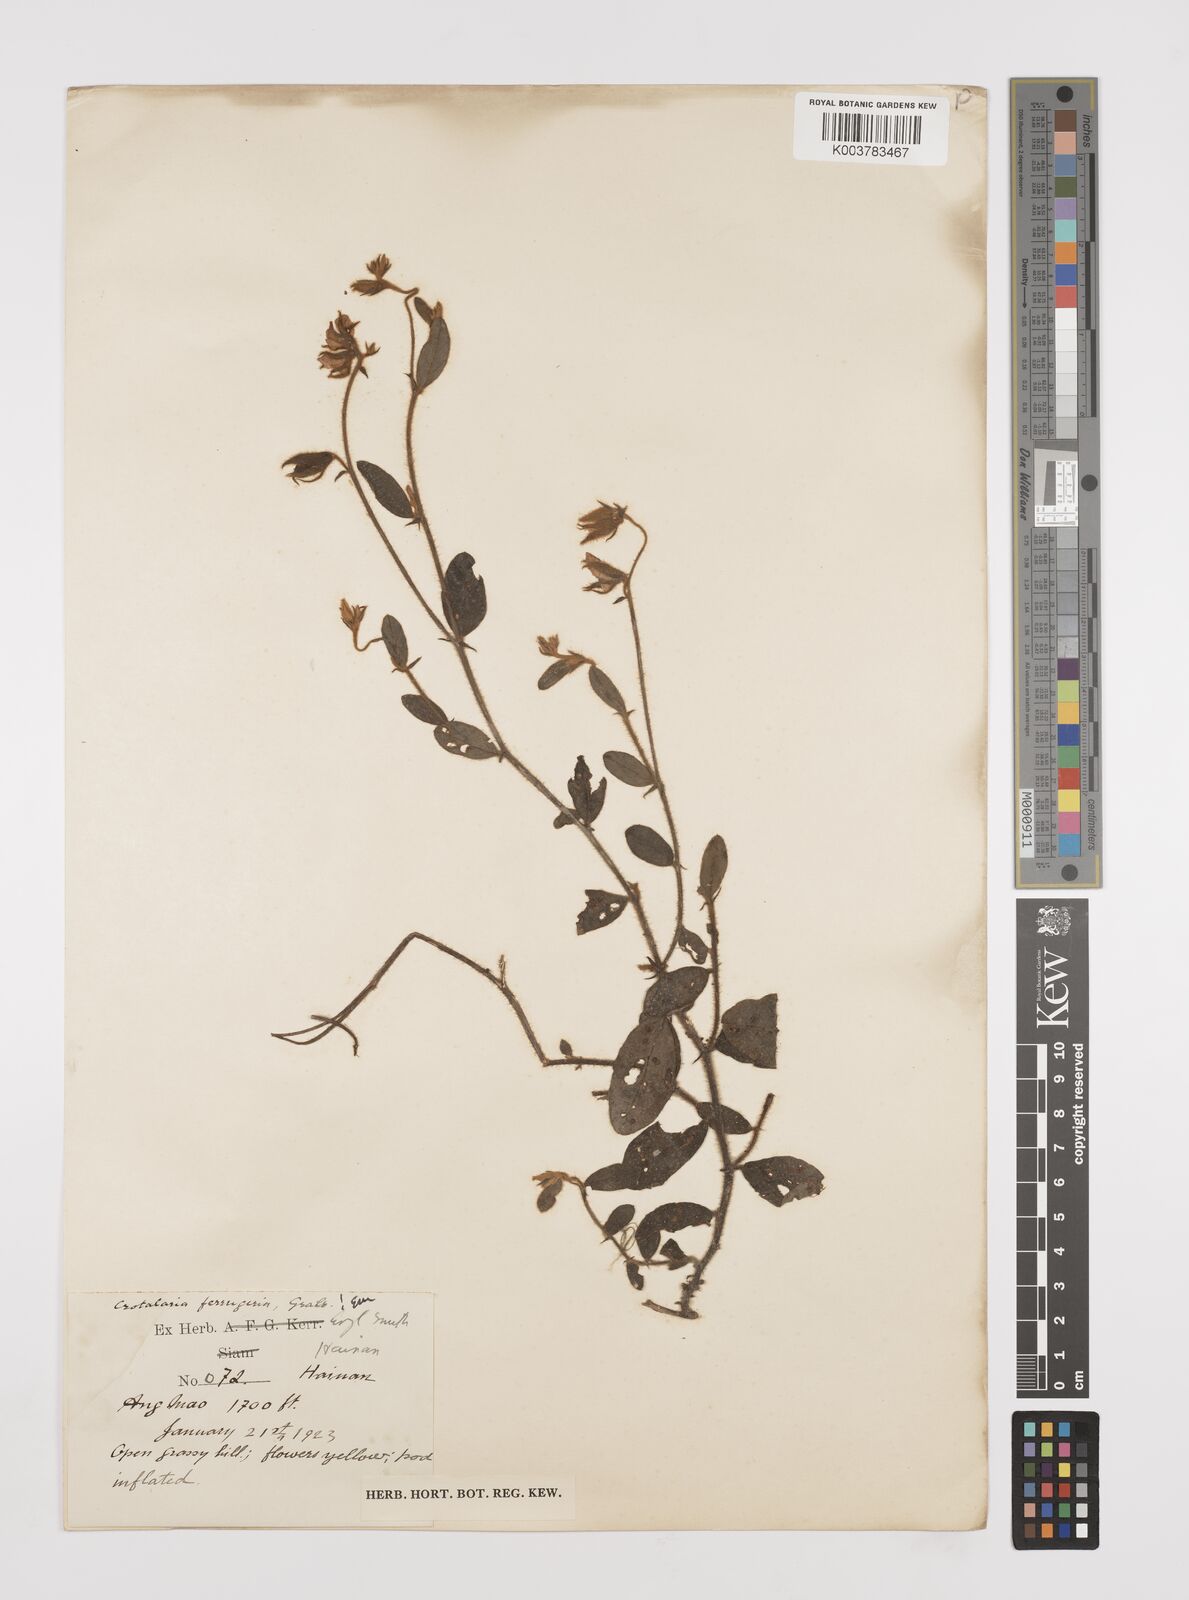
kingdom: Plantae
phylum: Tracheophyta
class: Magnoliopsida
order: Fabales
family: Fabaceae
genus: Crotalaria
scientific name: Crotalaria lejoloba
